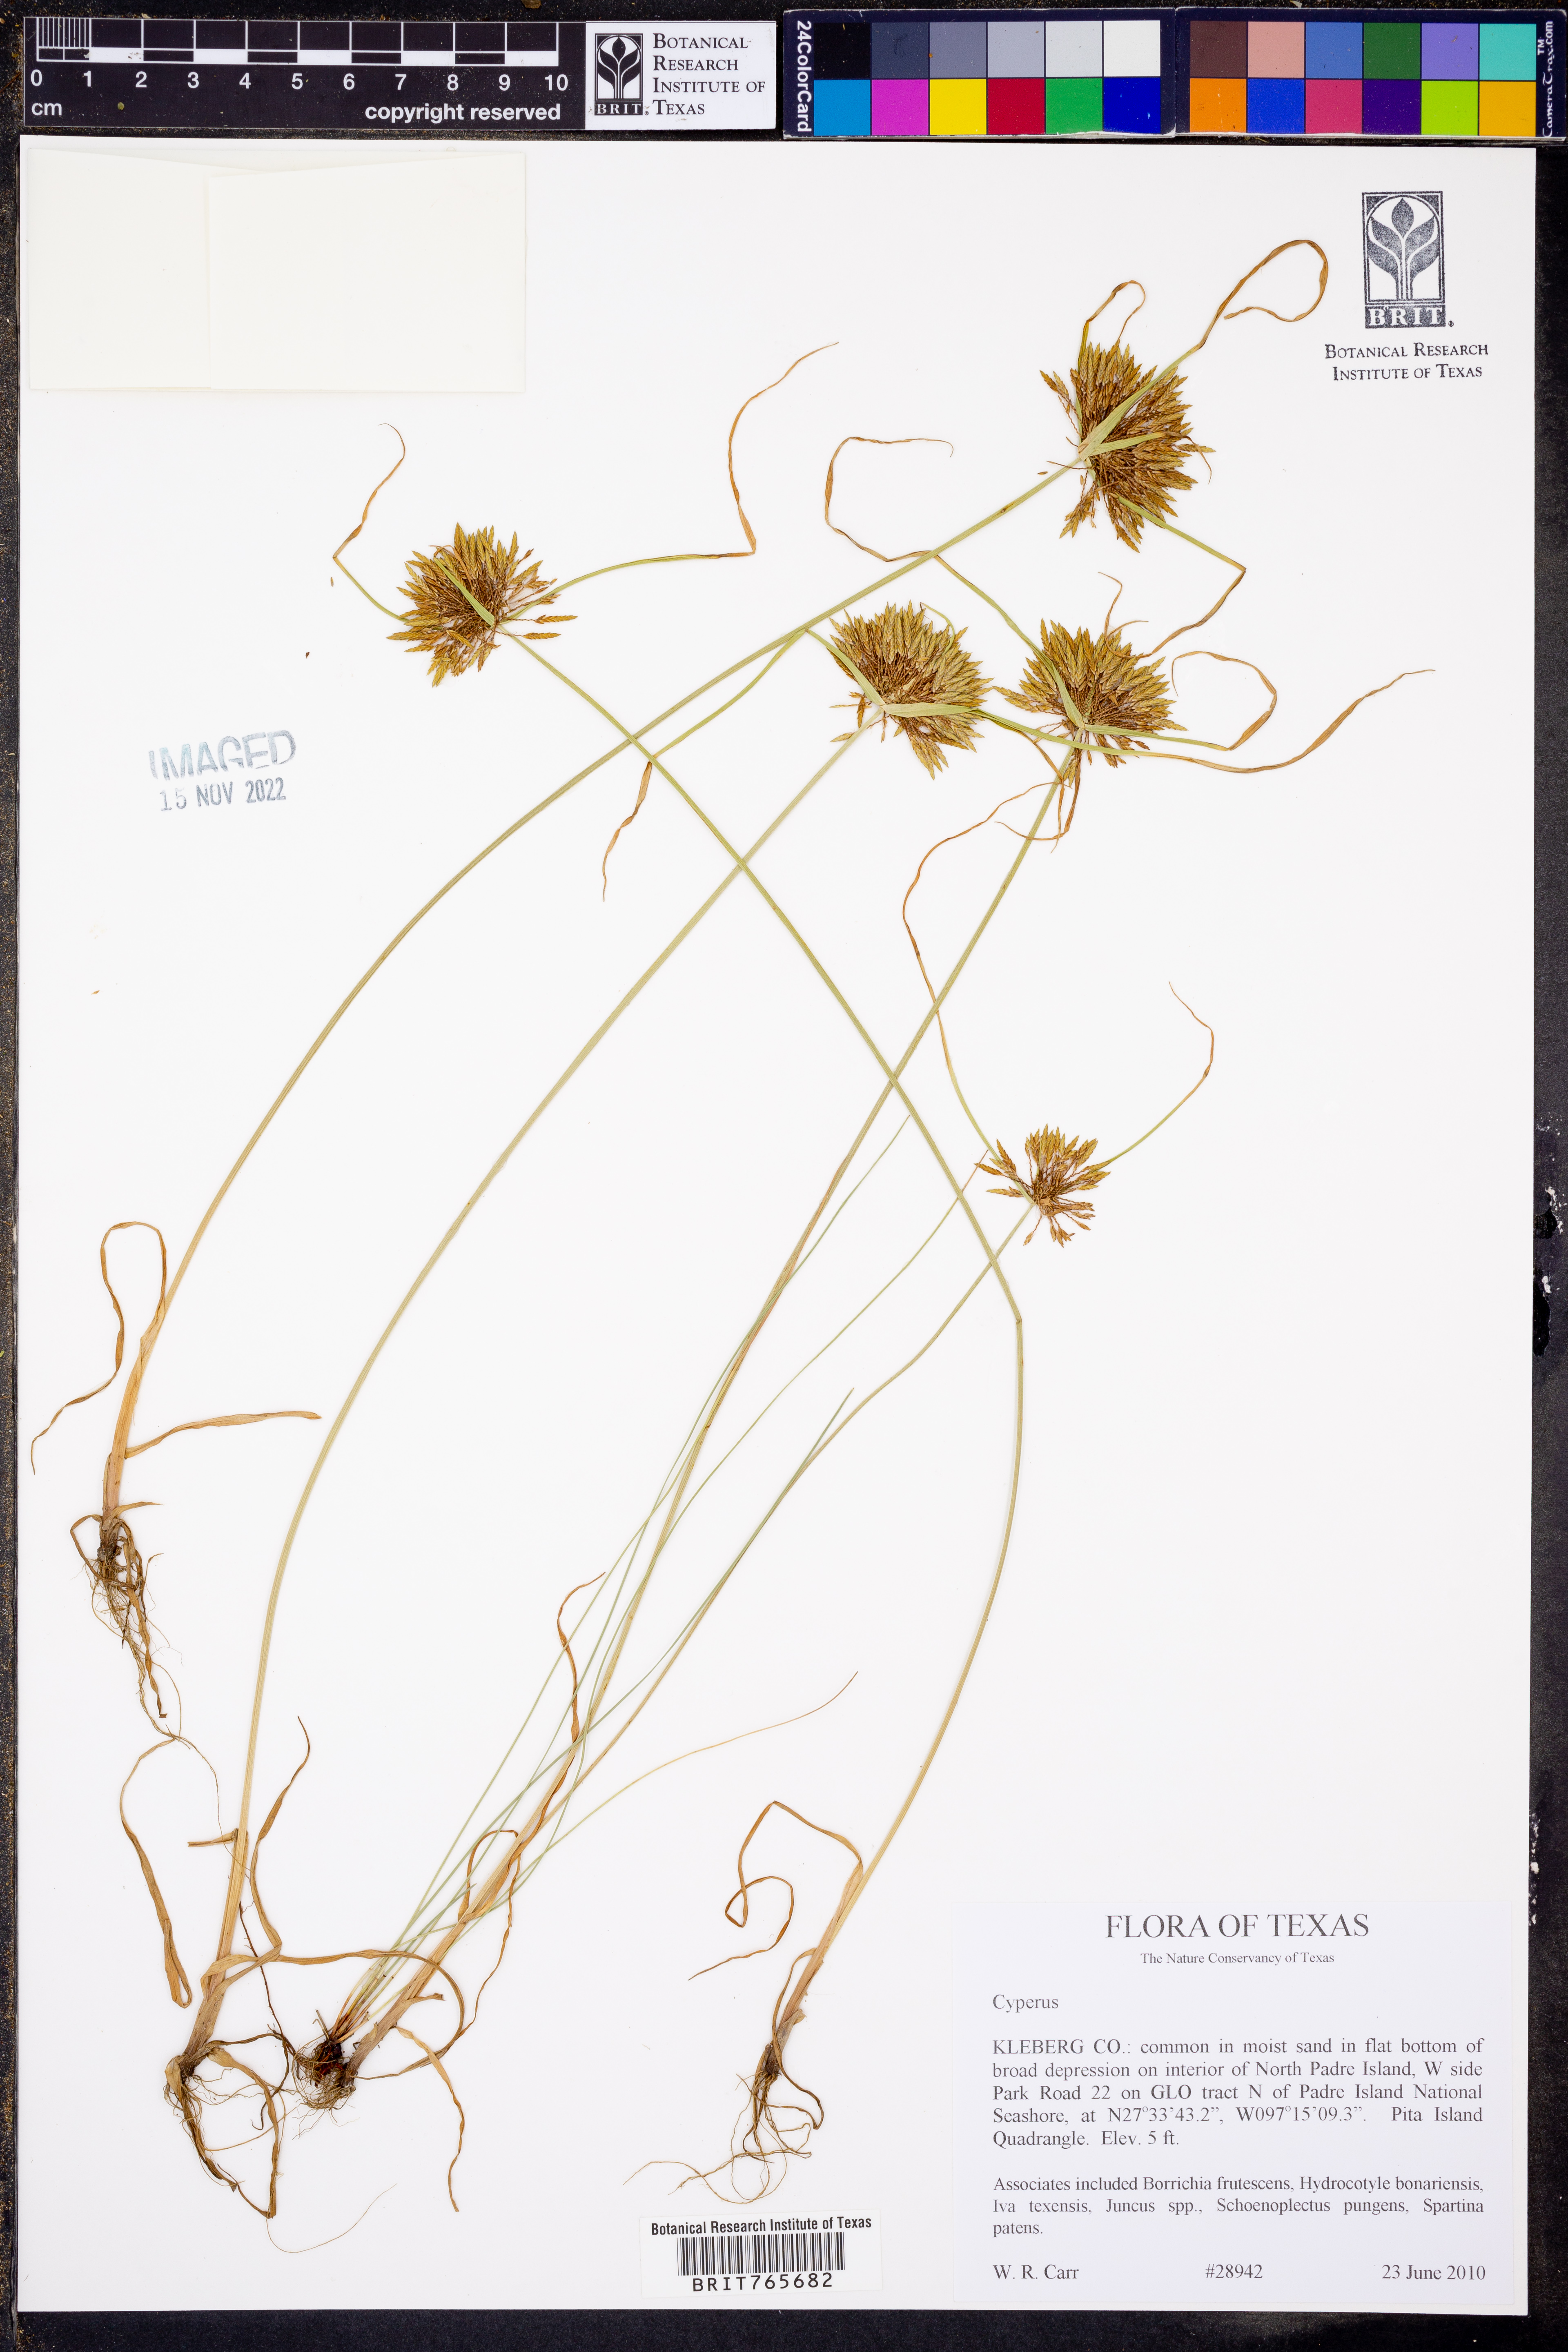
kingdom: Plantae
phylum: Tracheophyta
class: Liliopsida
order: Poales
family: Cyperaceae
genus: Cyperus
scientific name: Cyperus
